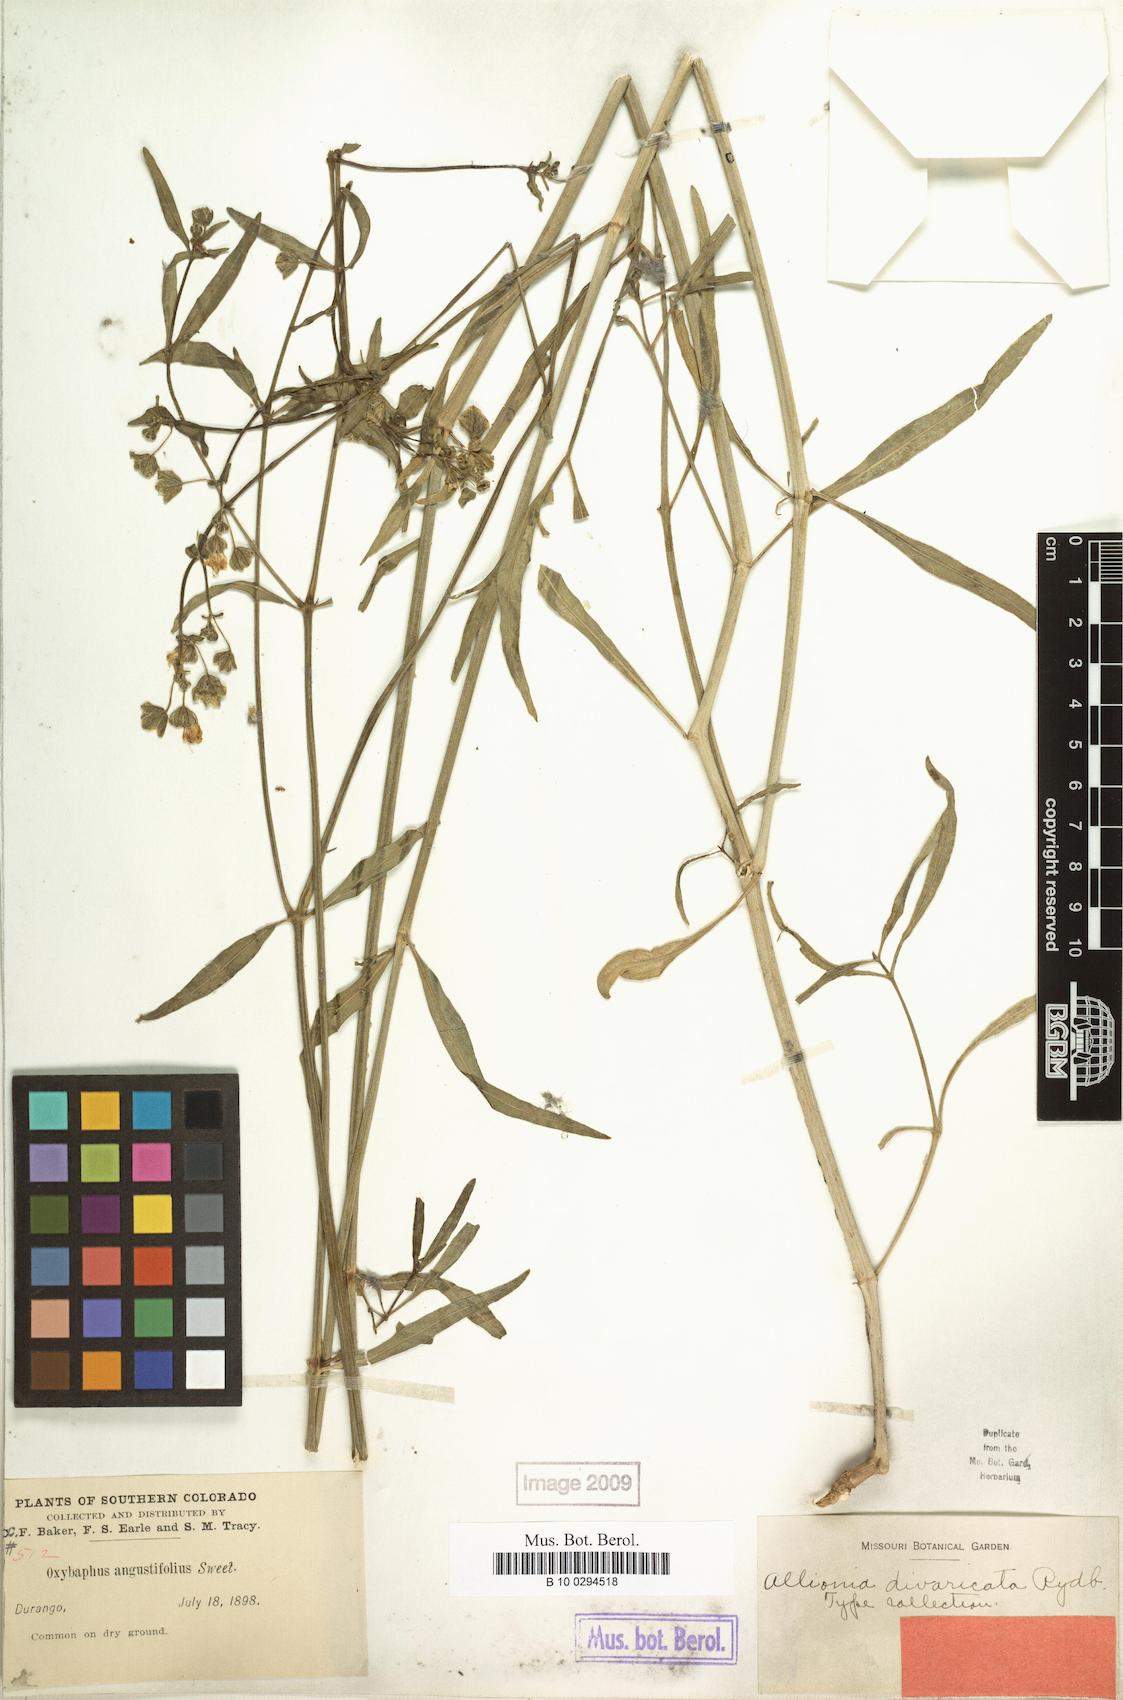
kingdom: Plantae
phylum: Tracheophyta
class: Magnoliopsida
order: Caryophyllales
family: Nyctaginaceae
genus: Mirabilis
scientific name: Mirabilis jalapa
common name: Marvel-of-peru
